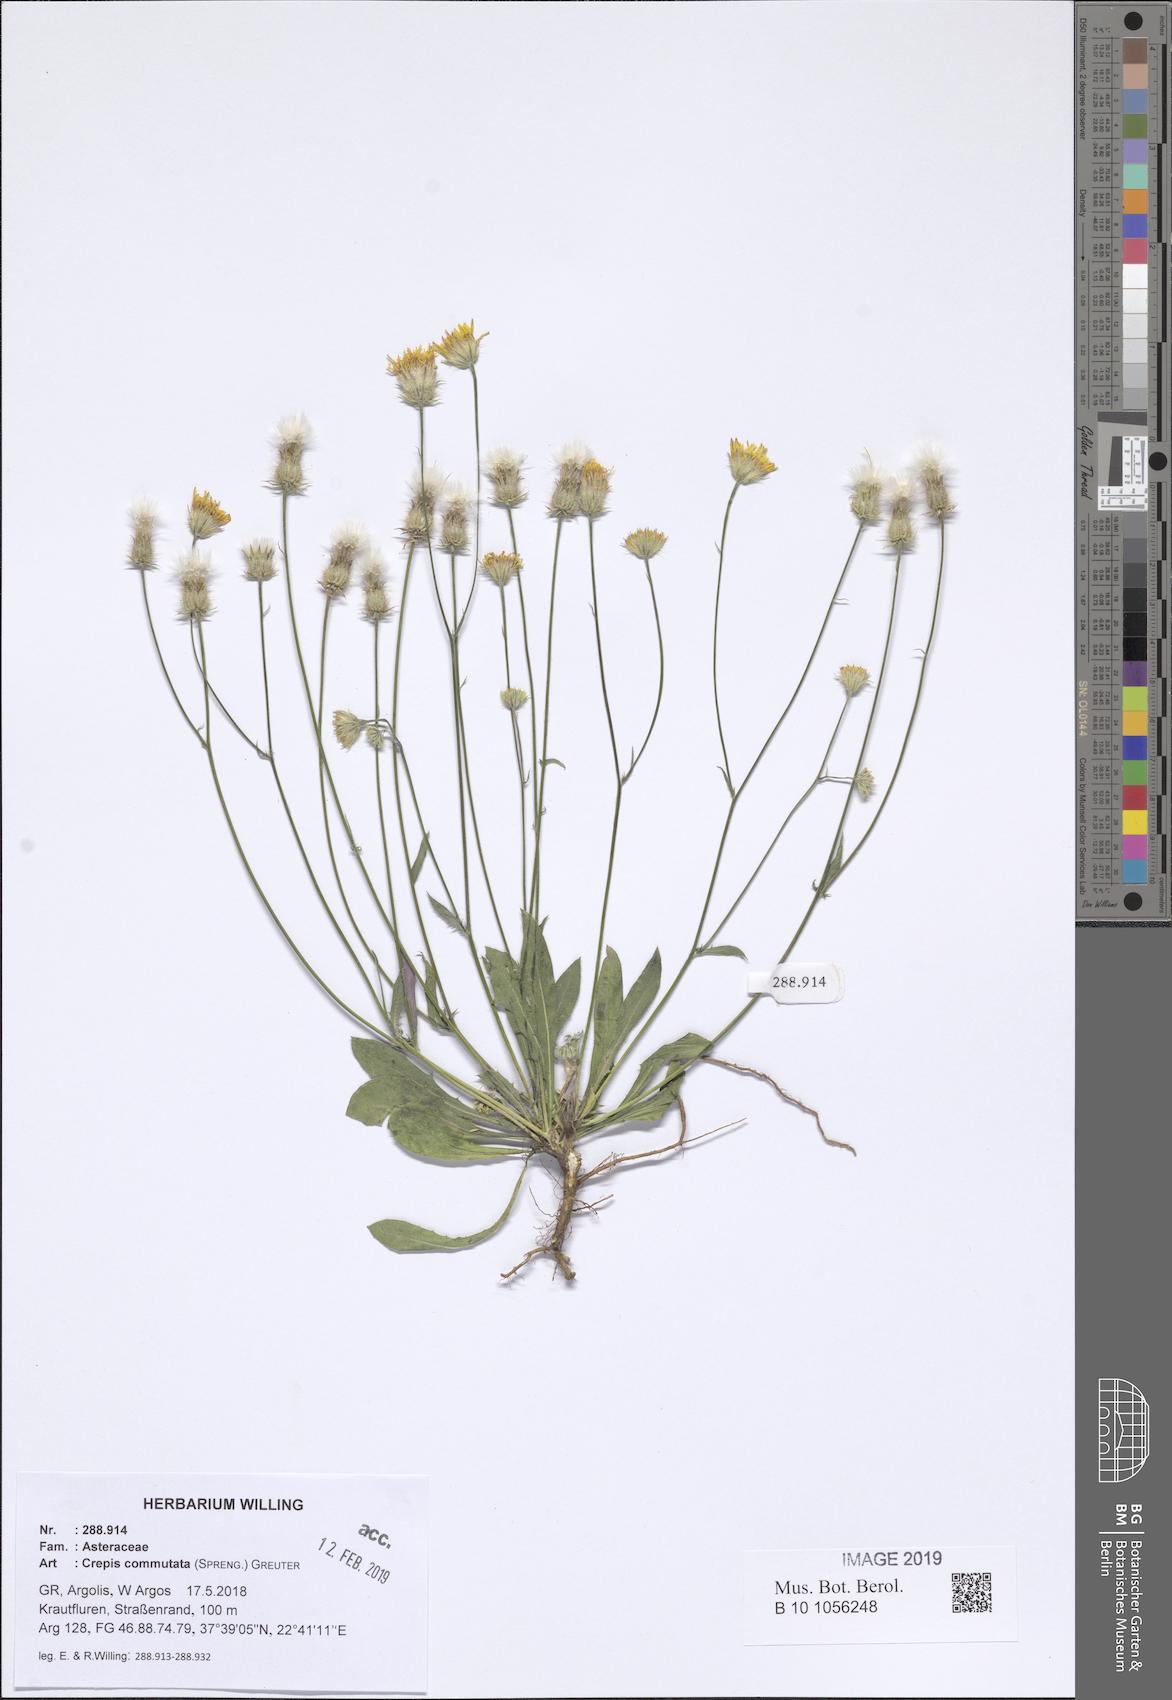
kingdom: Plantae
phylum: Tracheophyta
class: Magnoliopsida
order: Asterales
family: Asteraceae
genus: Crepis
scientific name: Crepis commutata
